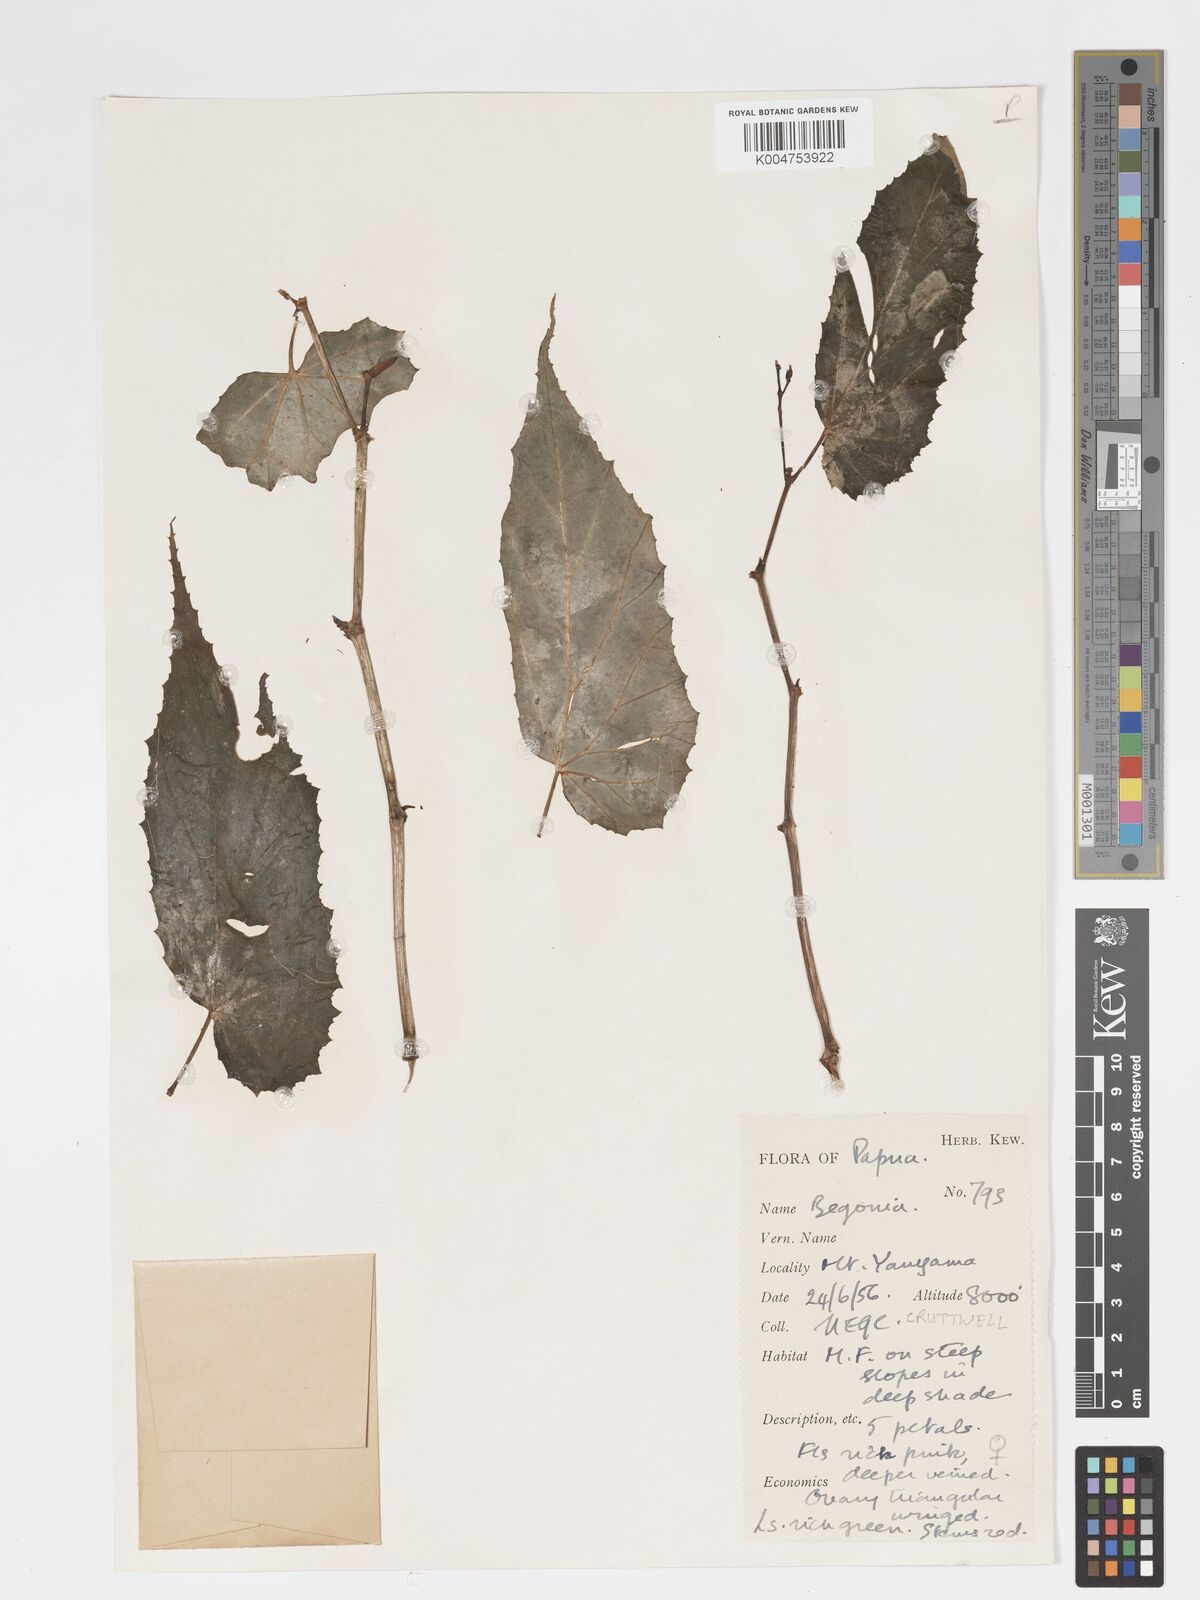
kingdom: Plantae
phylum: Tracheophyta
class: Magnoliopsida
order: Cucurbitales
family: Begoniaceae
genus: Begonia
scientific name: Begonia wollastonii
